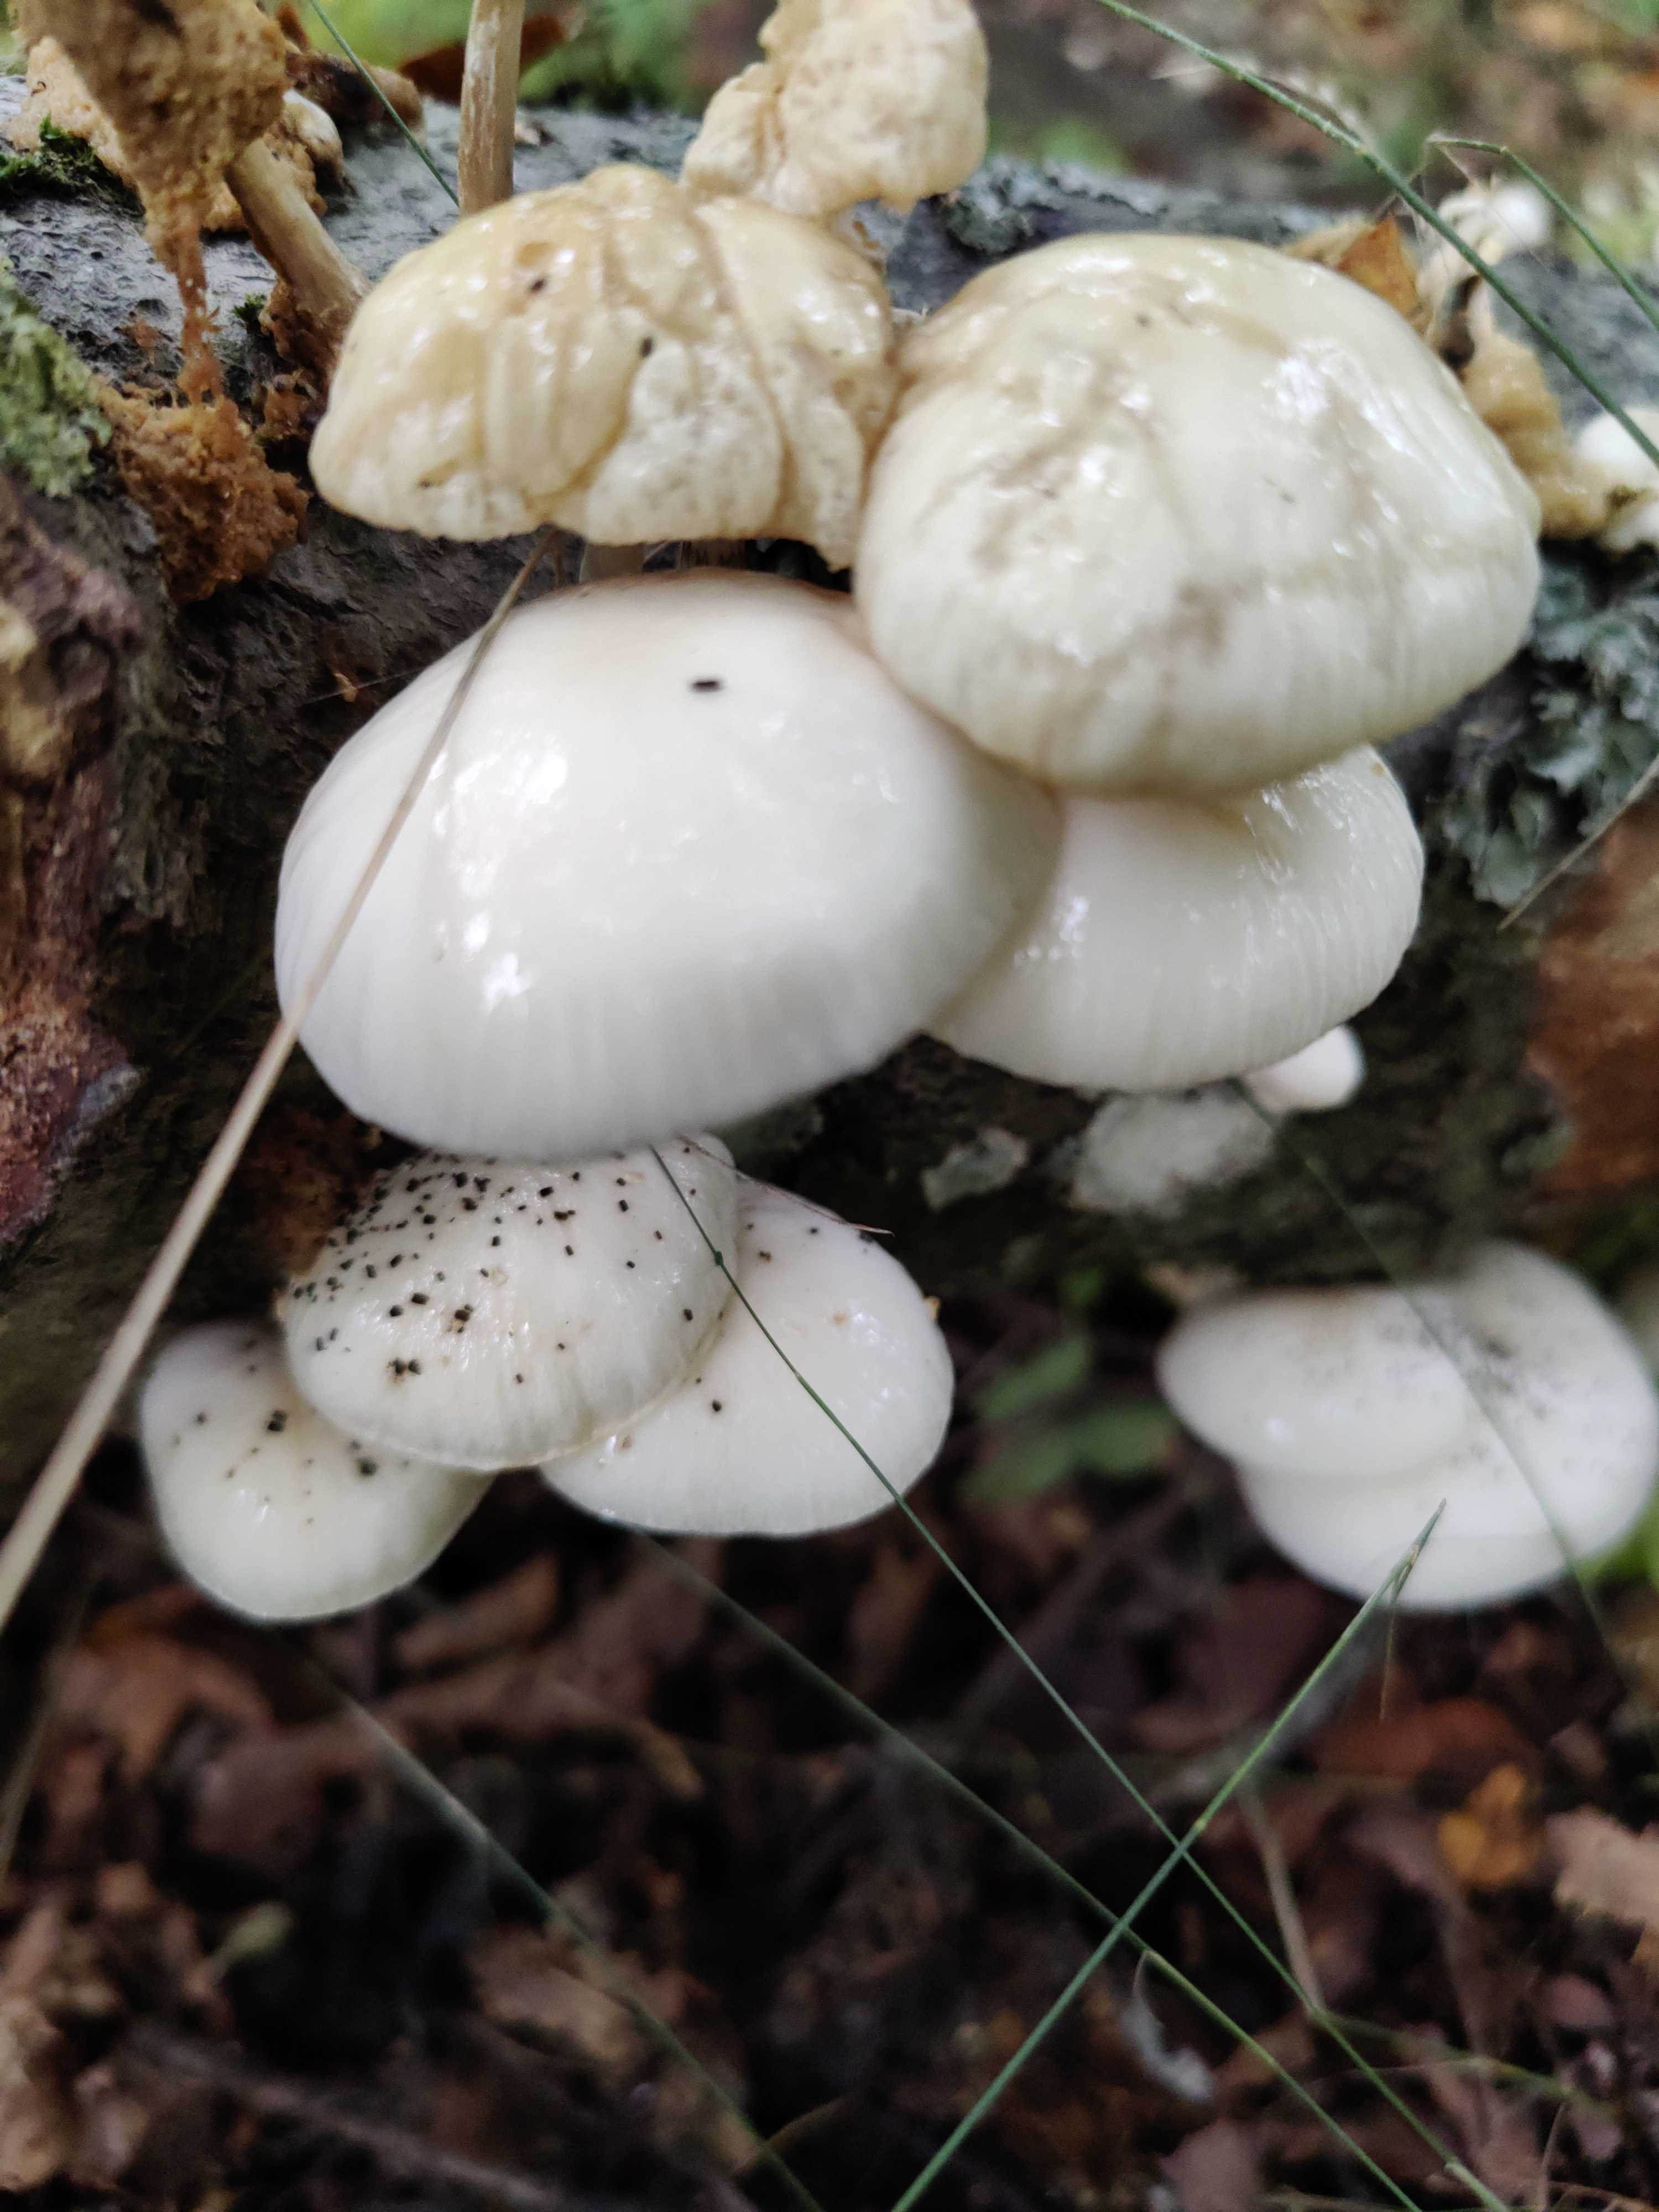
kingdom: Fungi
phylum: Basidiomycota
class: Agaricomycetes
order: Agaricales
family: Physalacriaceae
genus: Mucidula
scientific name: Mucidula mucida
